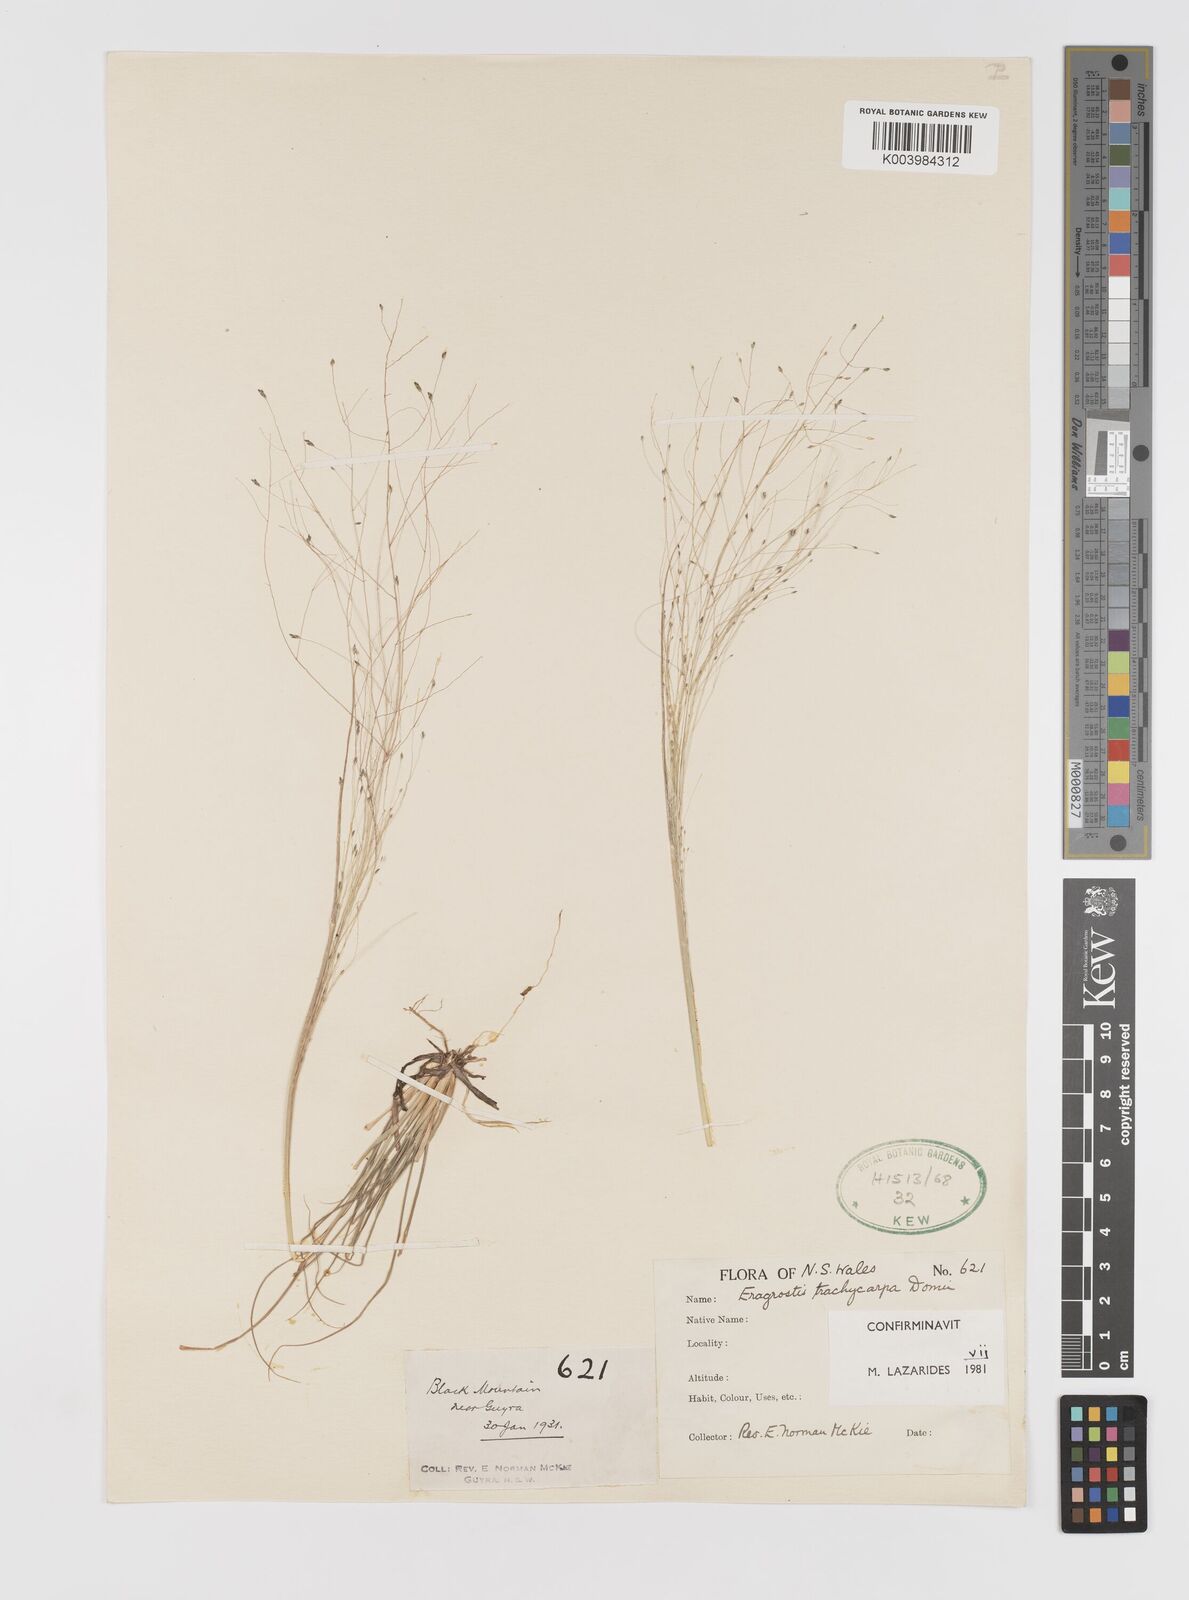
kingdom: Plantae
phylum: Tracheophyta
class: Liliopsida
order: Poales
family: Poaceae
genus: Eragrostis
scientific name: Eragrostis trachycarpa
